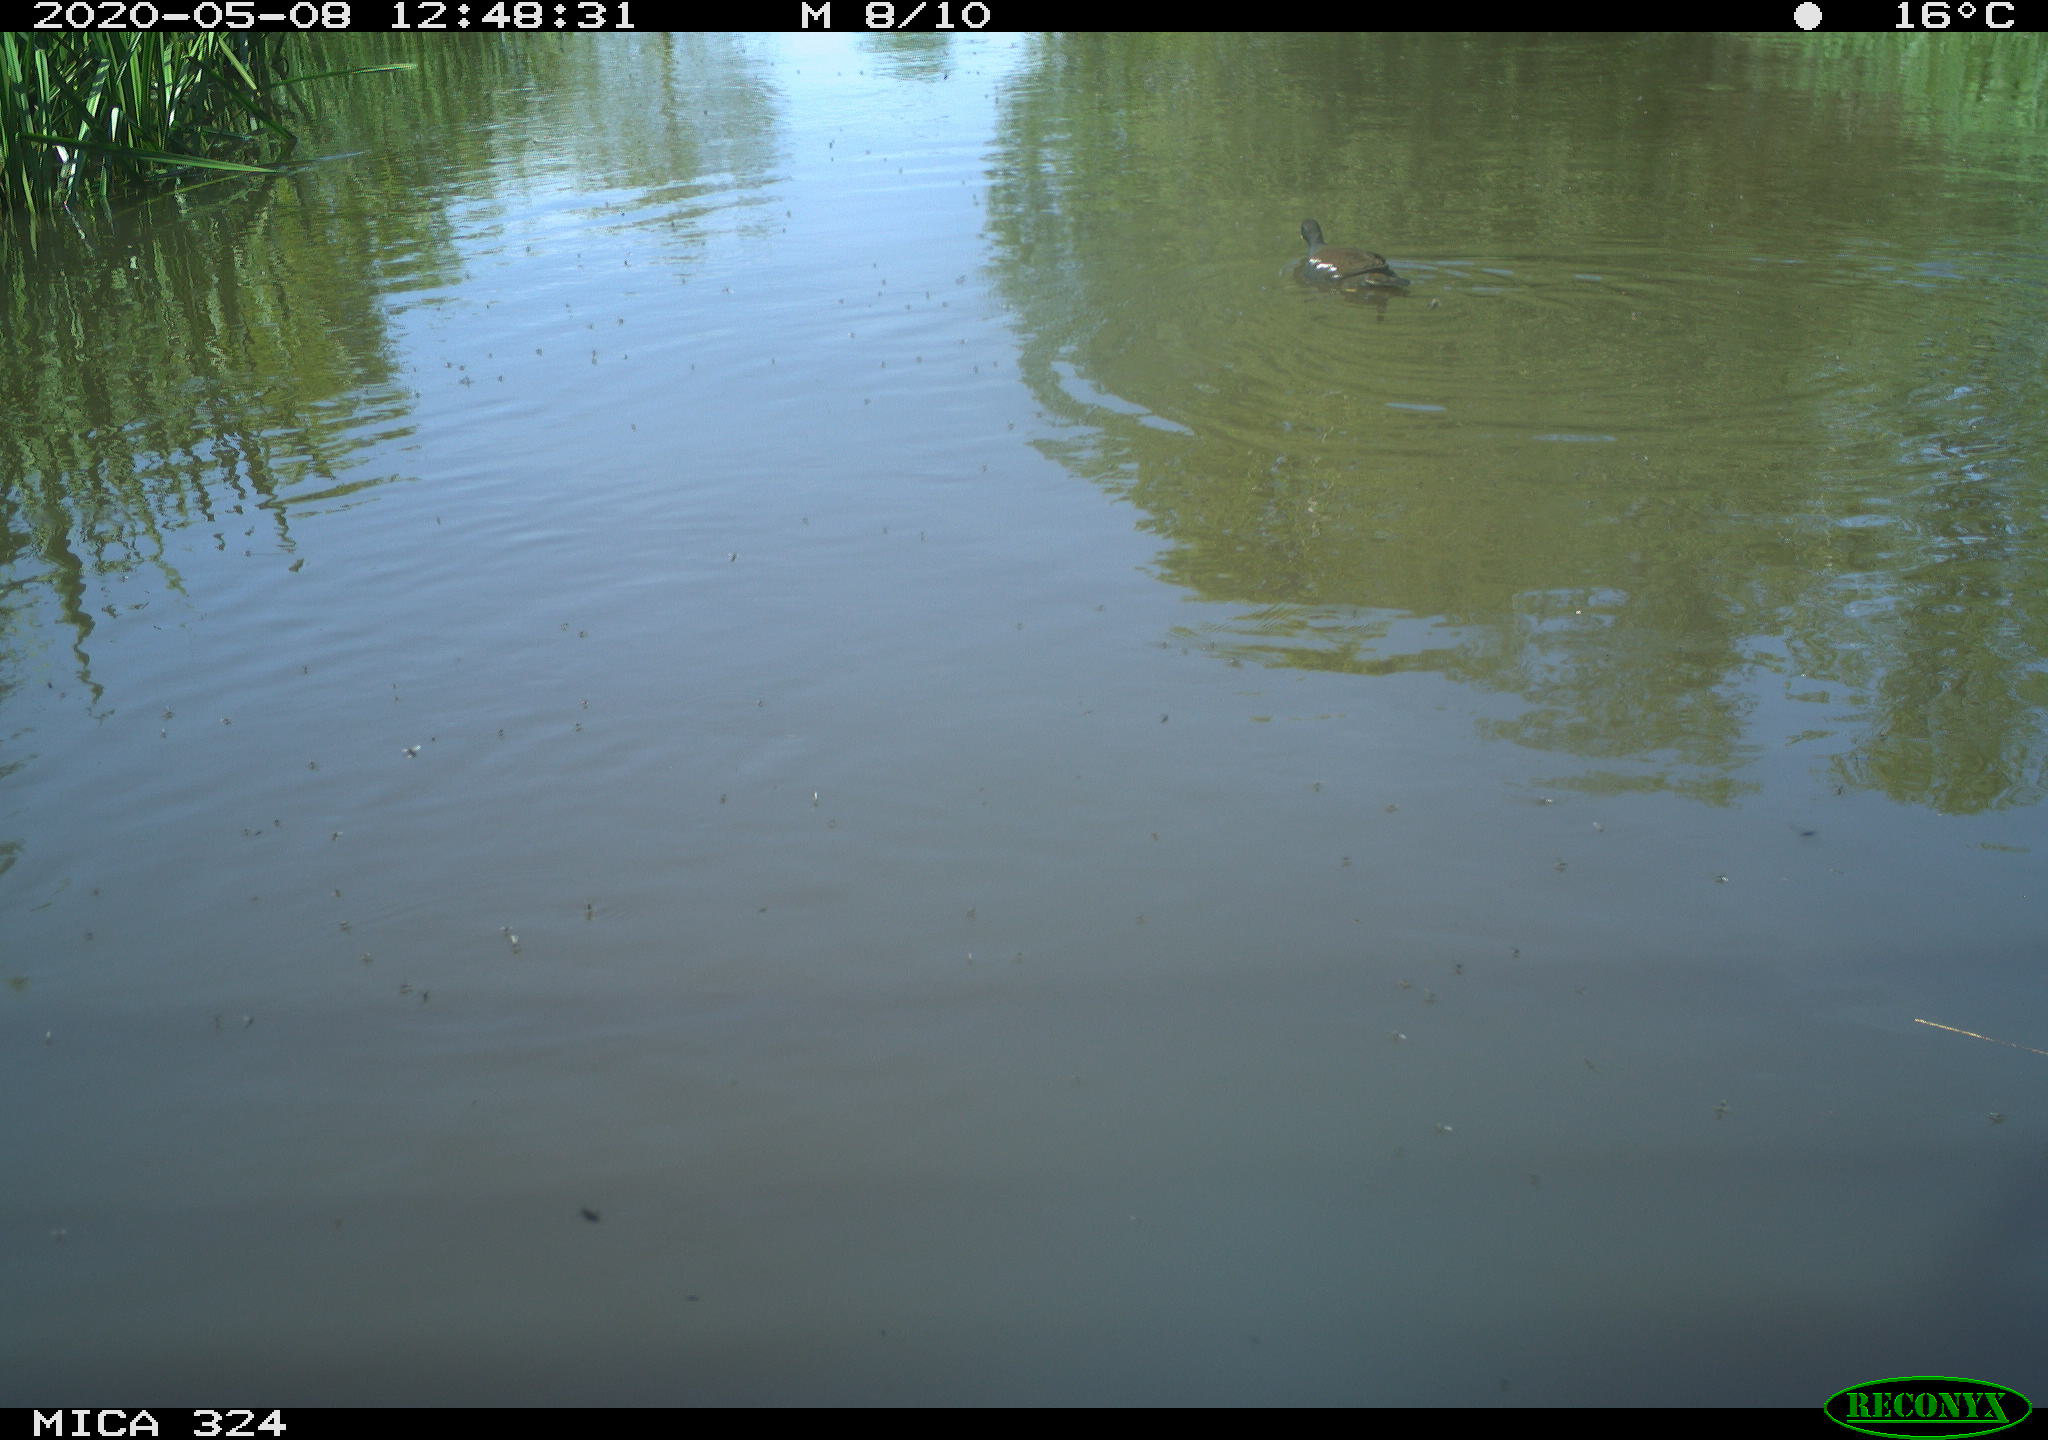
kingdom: Animalia
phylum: Chordata
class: Aves
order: Gruiformes
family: Rallidae
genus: Gallinula
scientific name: Gallinula chloropus
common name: Common moorhen
